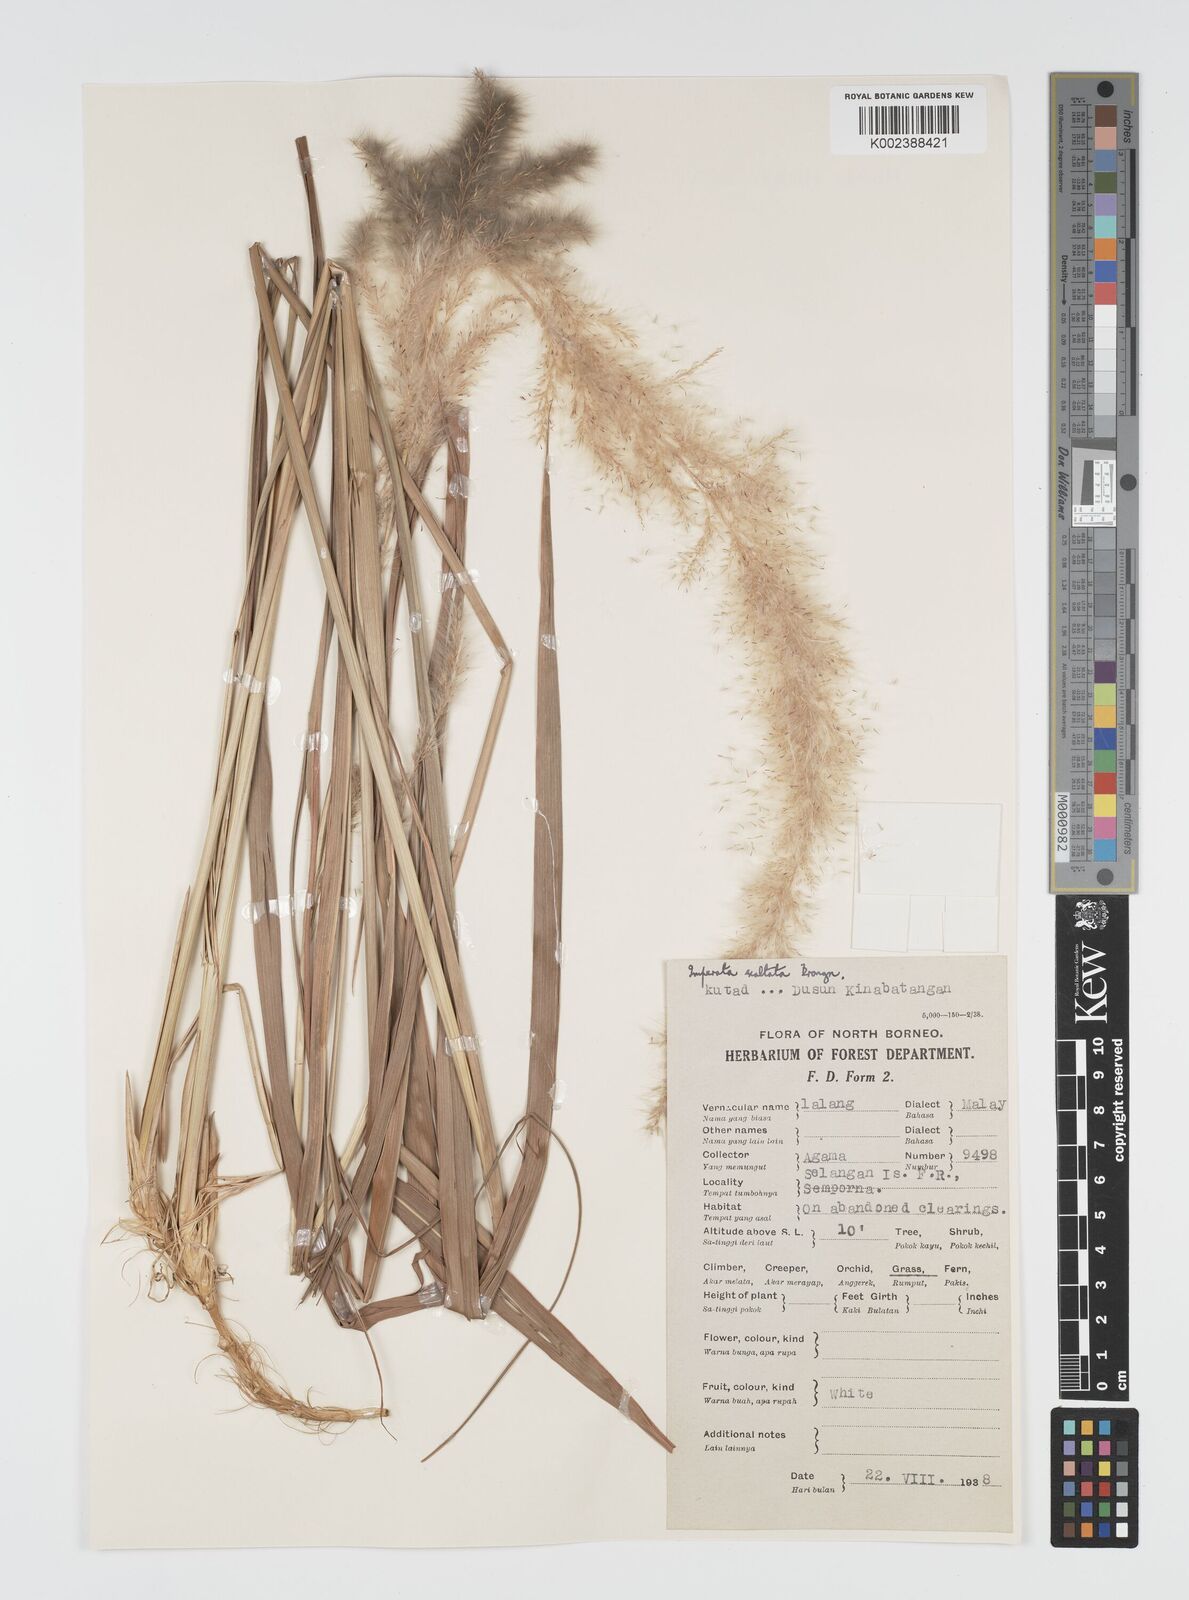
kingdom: Plantae
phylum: Tracheophyta
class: Liliopsida
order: Poales
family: Poaceae
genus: Imperata
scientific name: Imperata conferta
